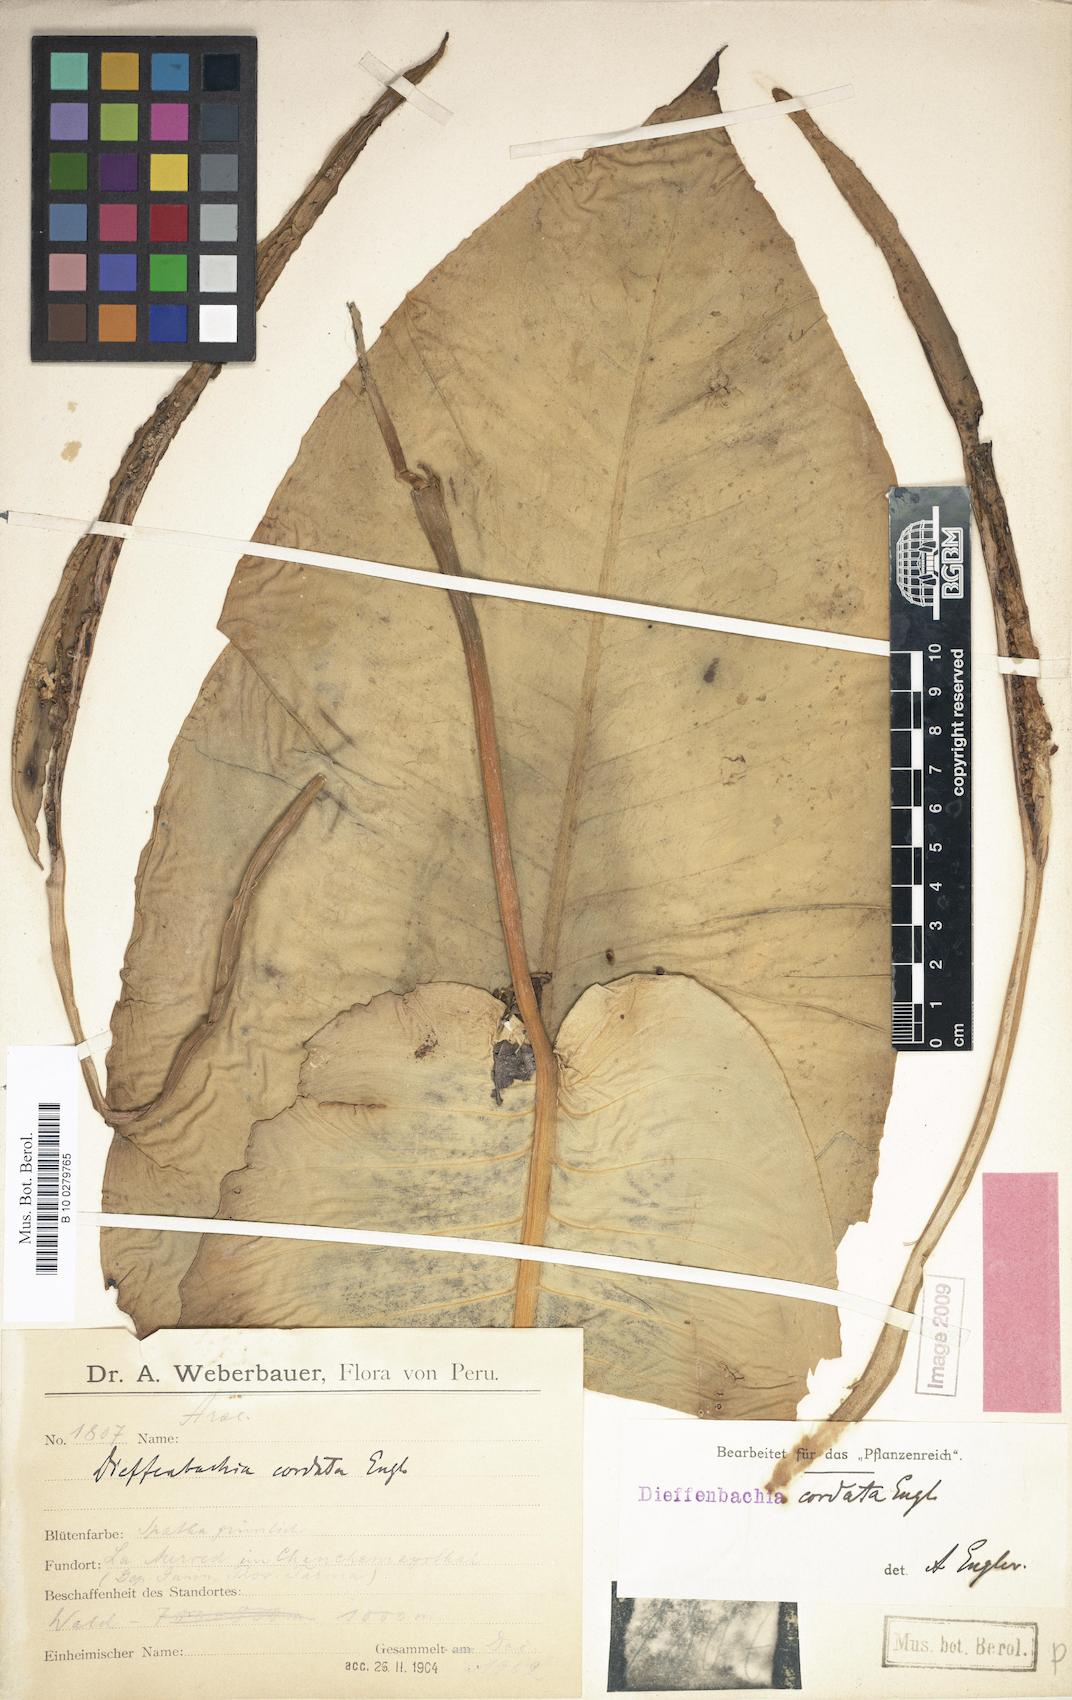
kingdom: Plantae
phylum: Tracheophyta
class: Liliopsida
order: Alismatales
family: Araceae
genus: Dieffenbachia
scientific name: Dieffenbachia cordata
